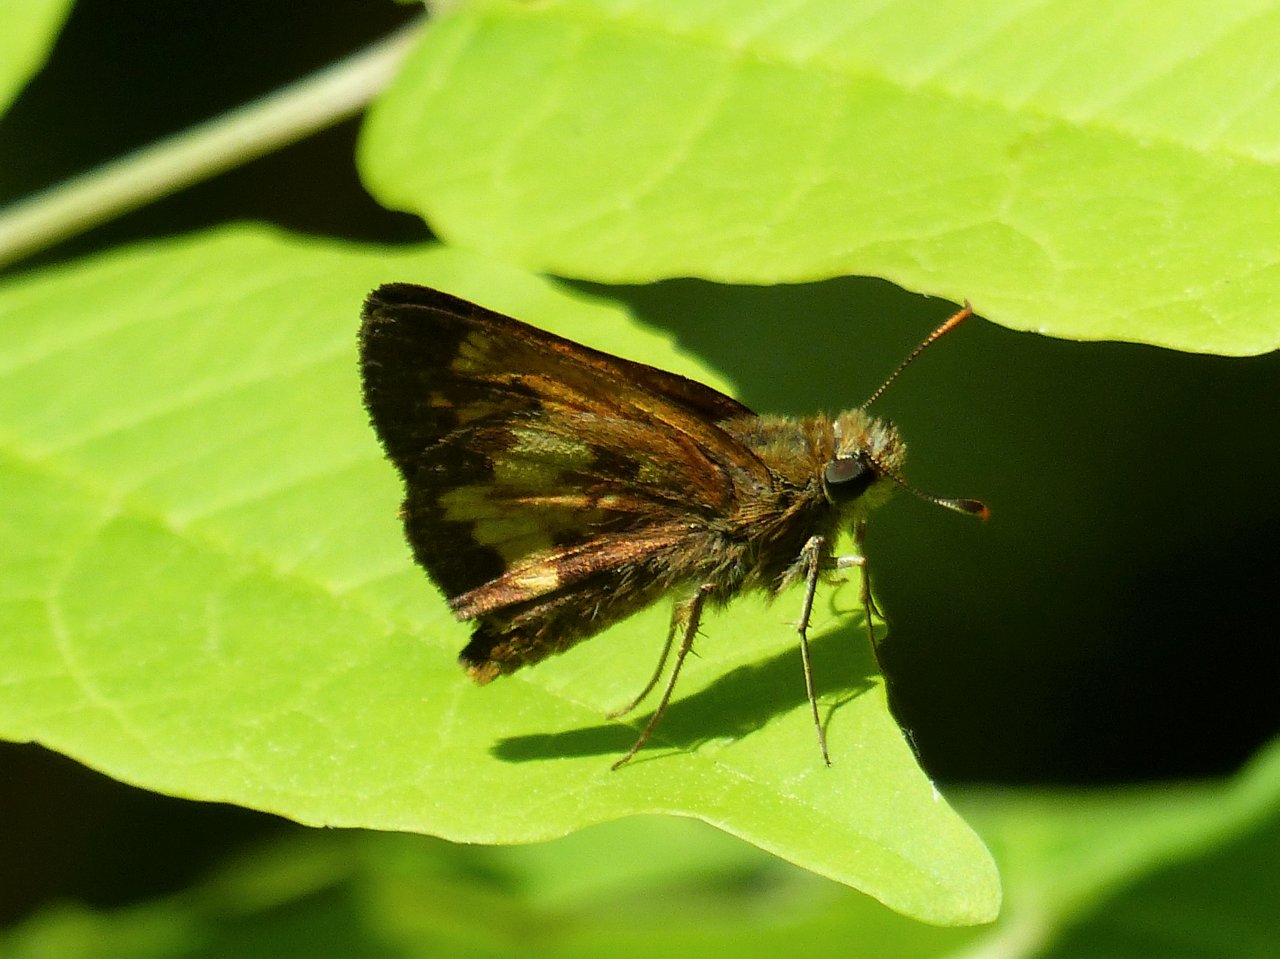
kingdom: Animalia
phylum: Arthropoda
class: Insecta
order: Lepidoptera
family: Hesperiidae
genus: Lon
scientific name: Lon hobomok
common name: Hobomok Skipper
